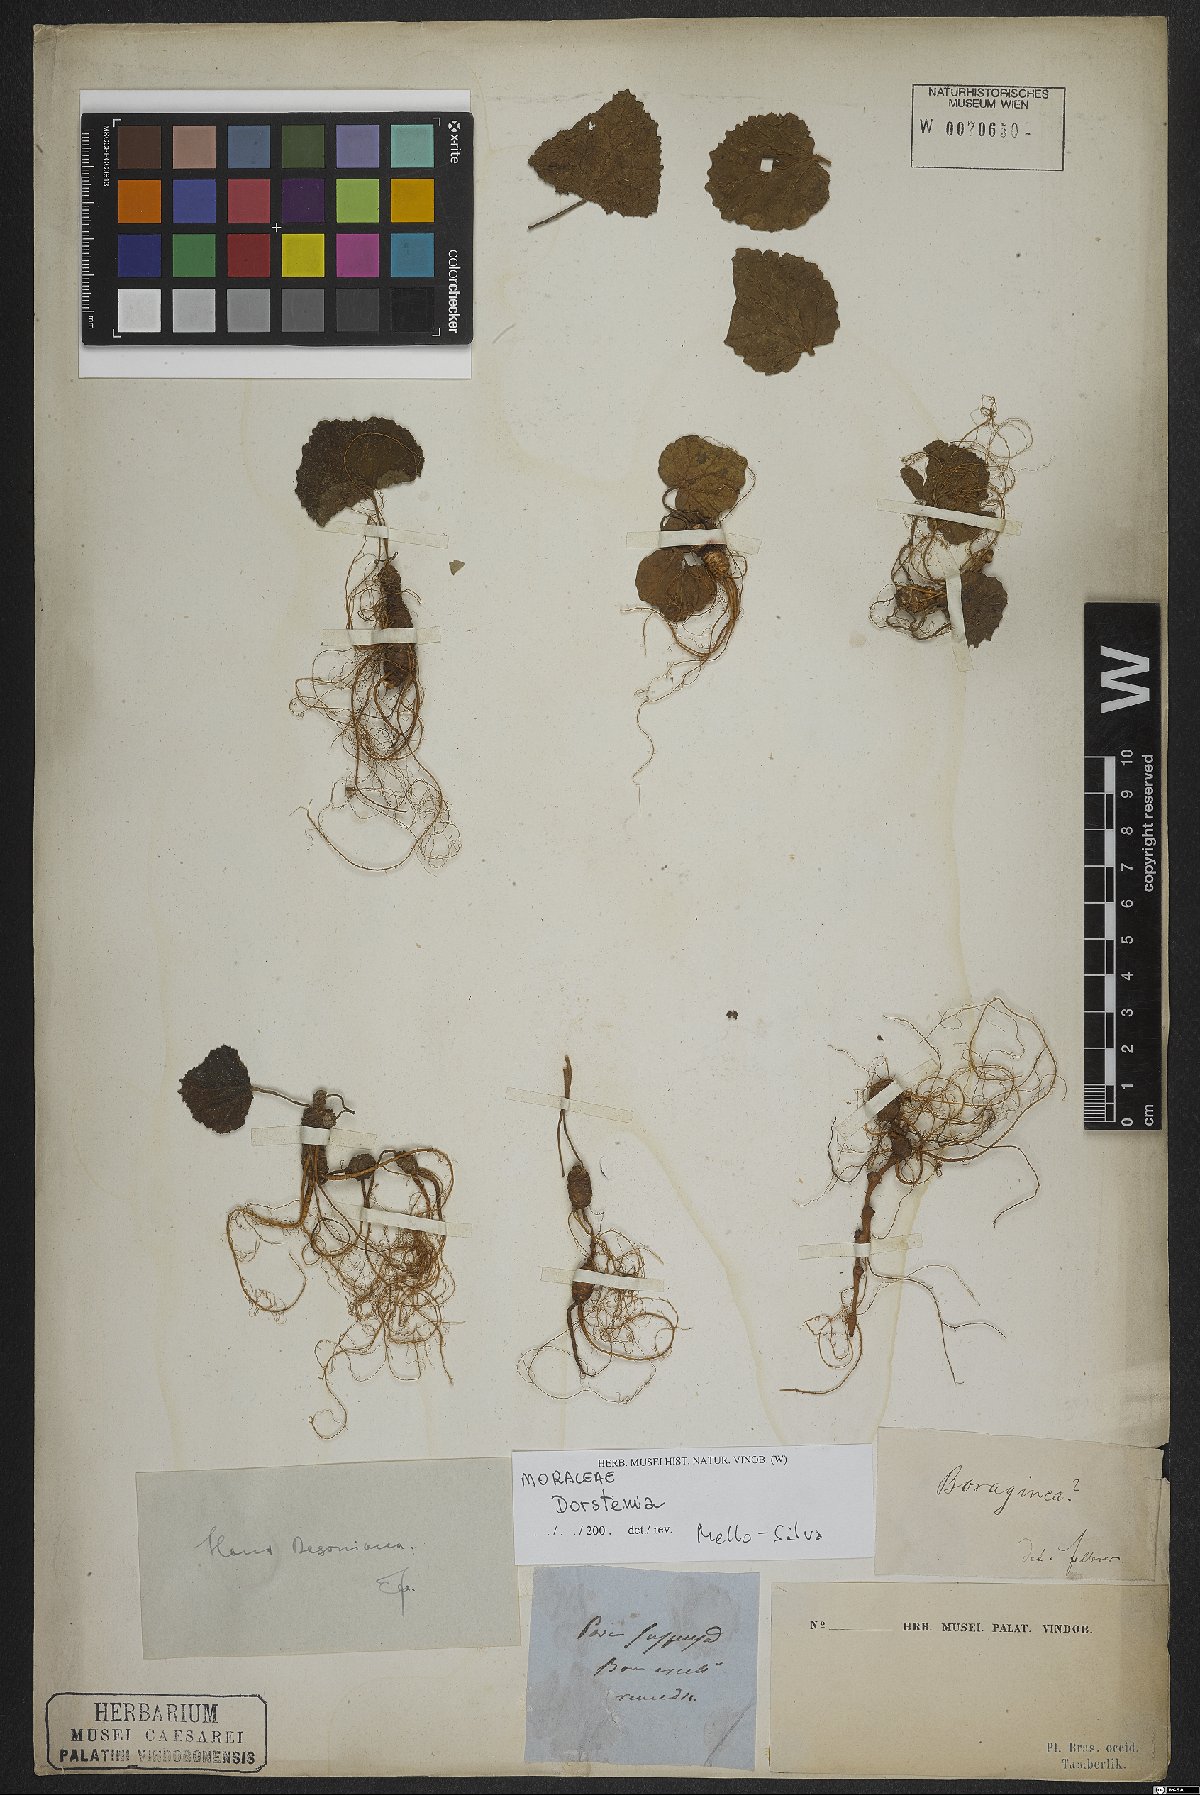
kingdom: Plantae
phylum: Tracheophyta
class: Magnoliopsida
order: Rosales
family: Moraceae
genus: Dorstenia
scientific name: Dorstenia
